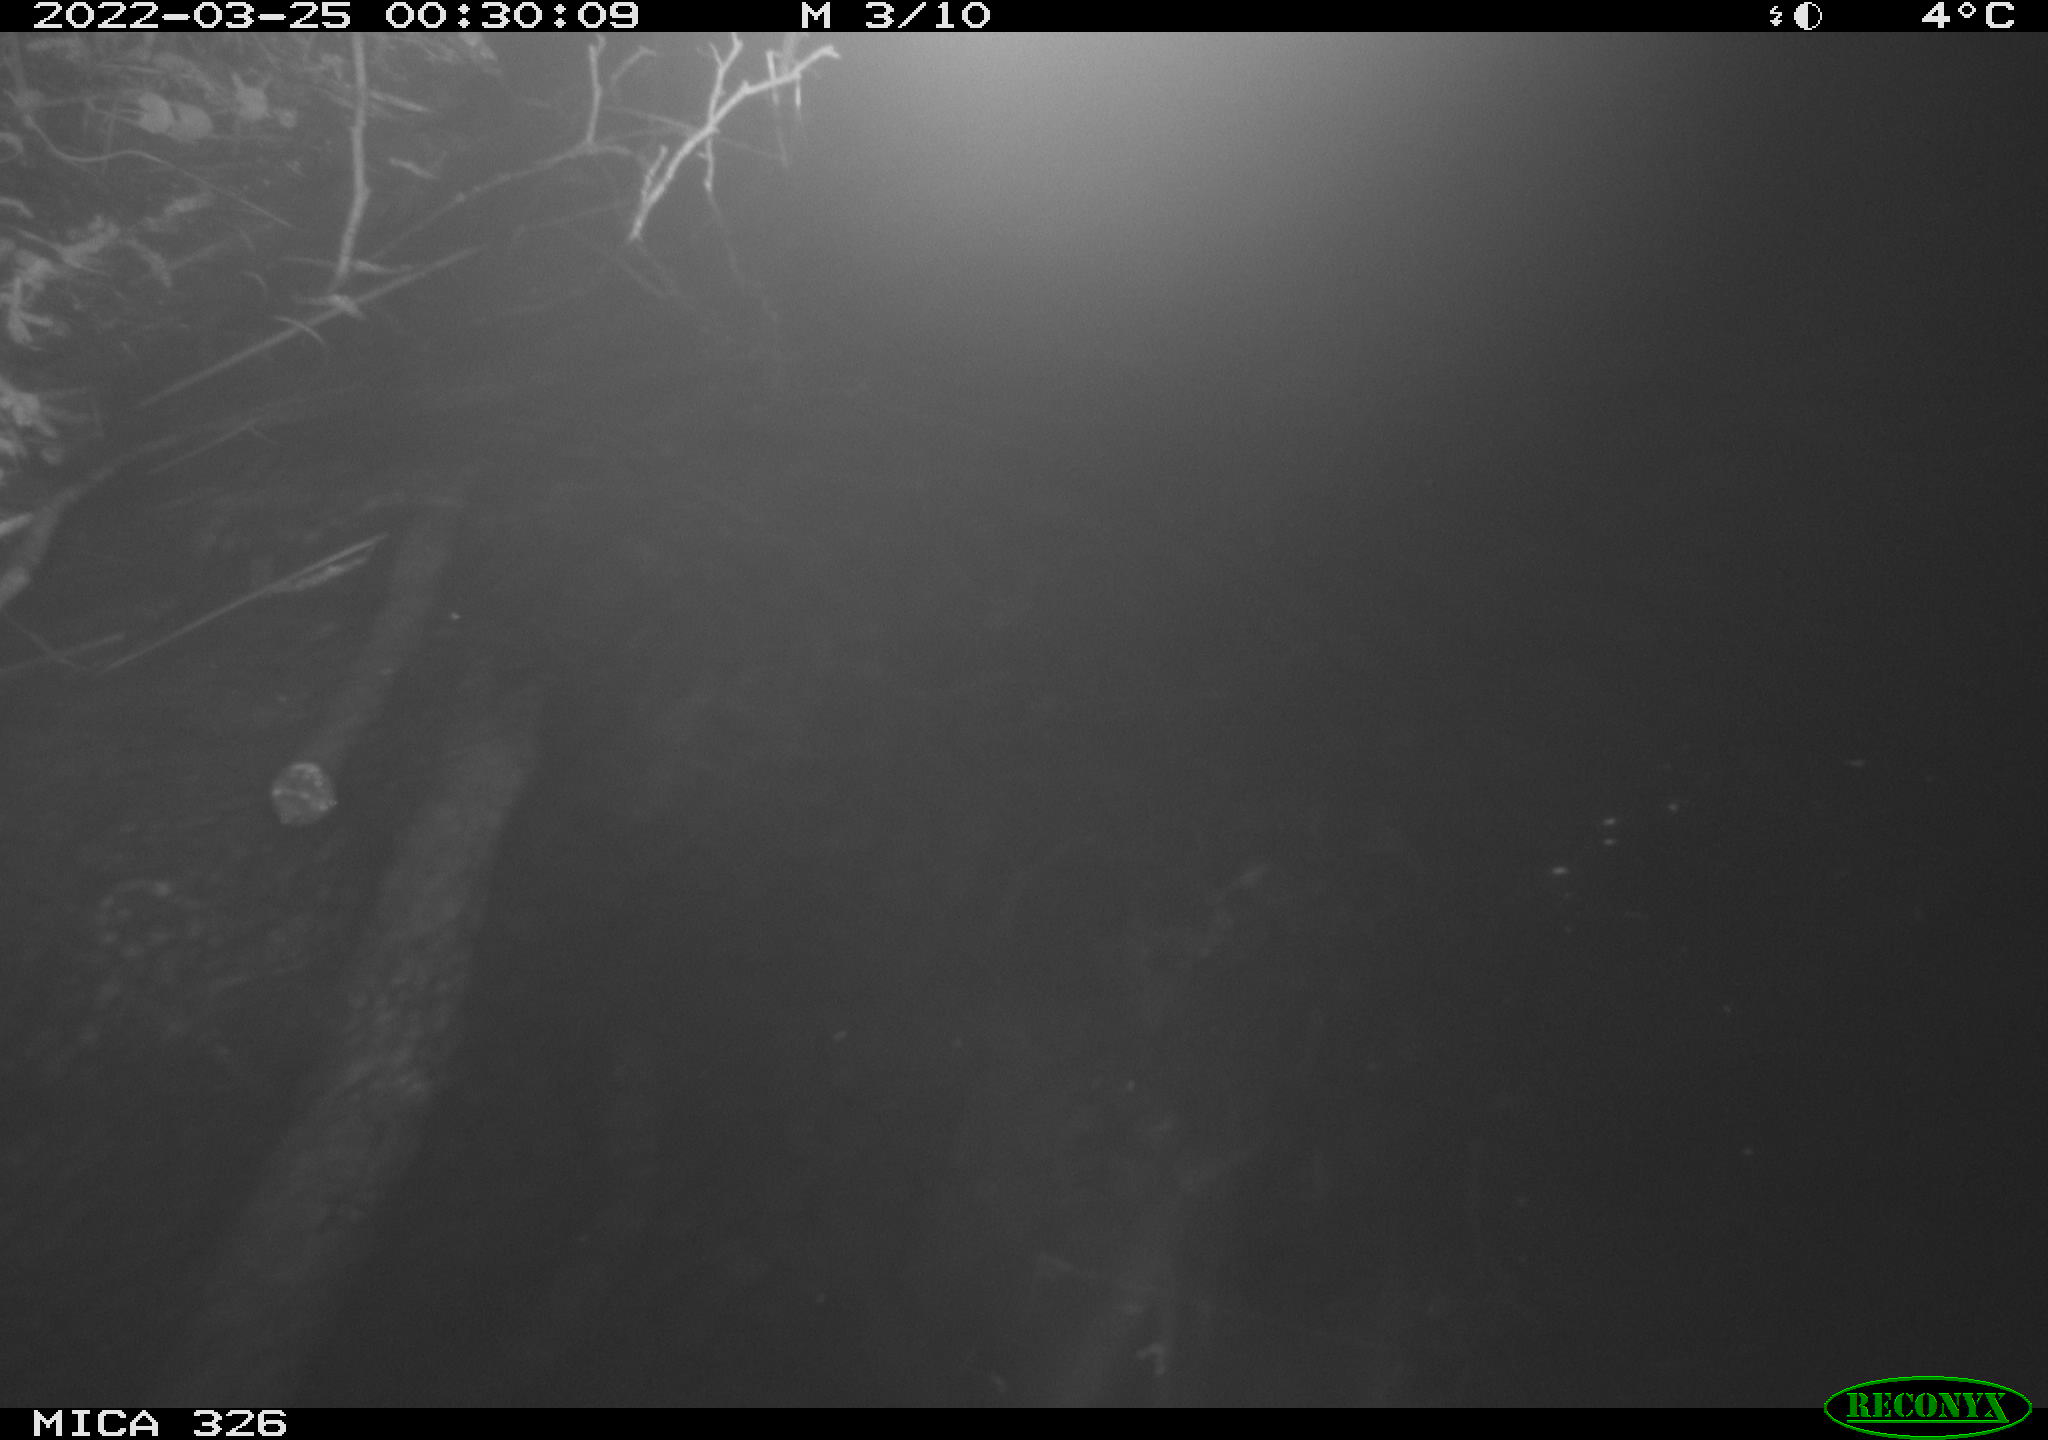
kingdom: Animalia
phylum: Chordata
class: Mammalia
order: Rodentia
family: Muridae
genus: Rattus
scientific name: Rattus norvegicus
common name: Brown rat
